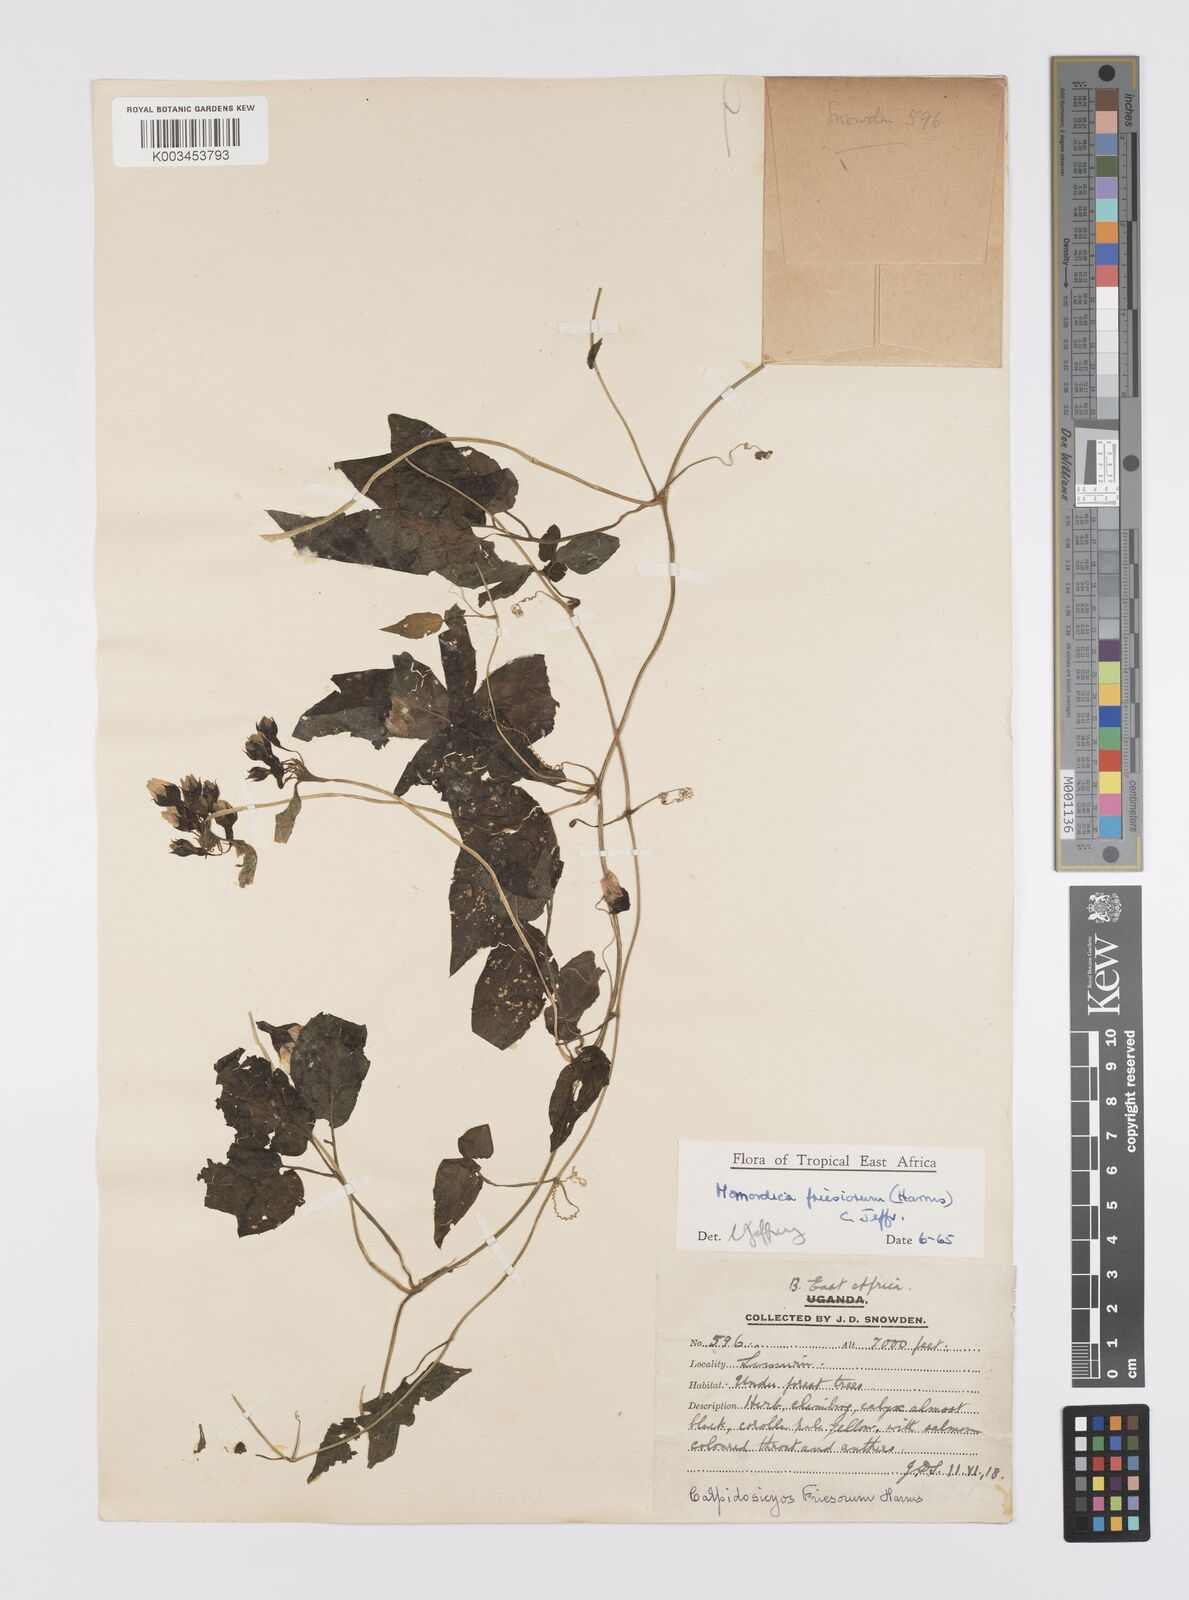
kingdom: Plantae
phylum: Tracheophyta
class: Magnoliopsida
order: Cucurbitales
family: Cucurbitaceae
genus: Momordica
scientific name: Momordica friesiorum
